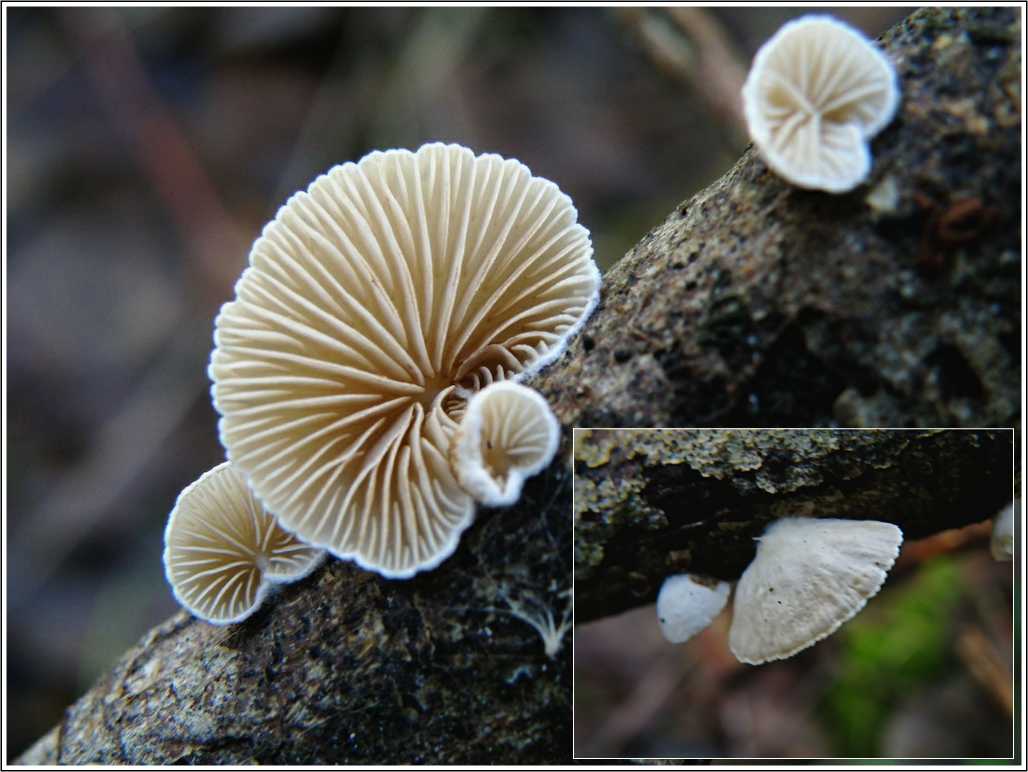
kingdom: Fungi
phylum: Basidiomycota
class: Agaricomycetes
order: Agaricales
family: Crepidotaceae
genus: Crepidotus
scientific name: Crepidotus cesatii
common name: almindelig muslingesvamp
